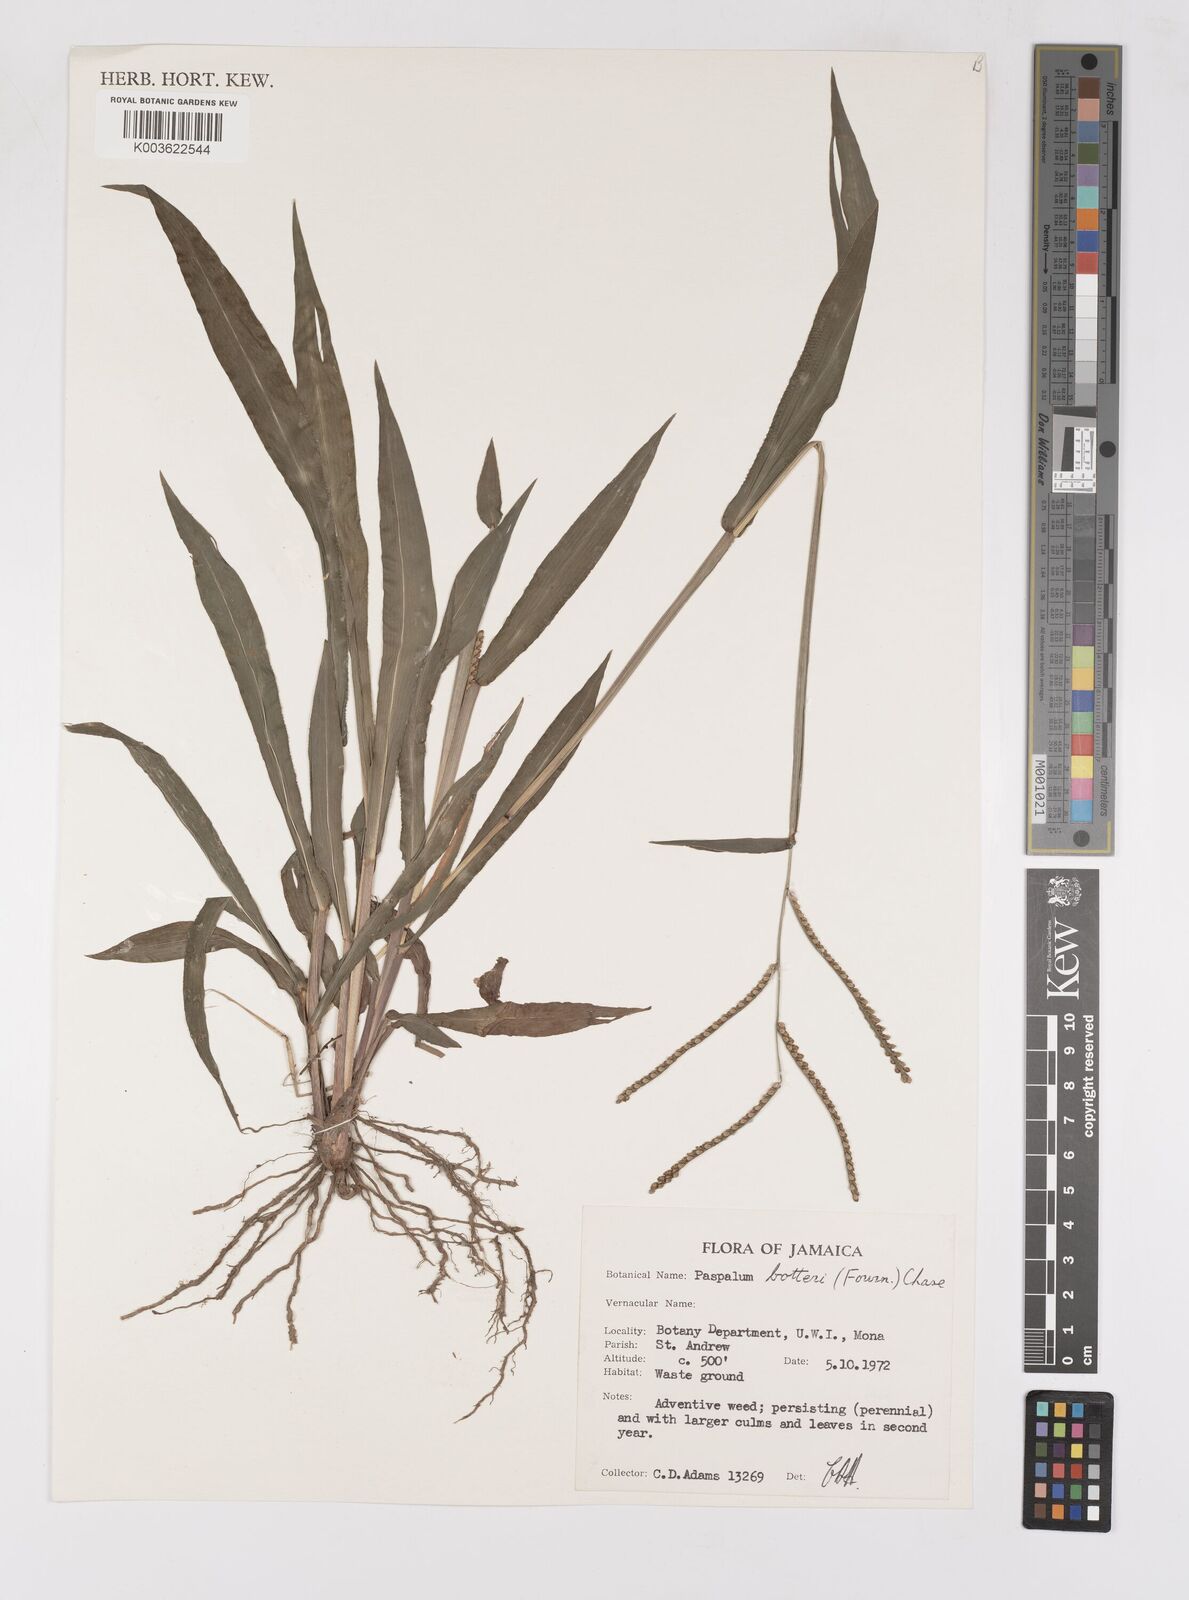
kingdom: Plantae
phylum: Tracheophyta
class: Liliopsida
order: Poales
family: Poaceae
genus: Paspalum
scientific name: Paspalum botterii
